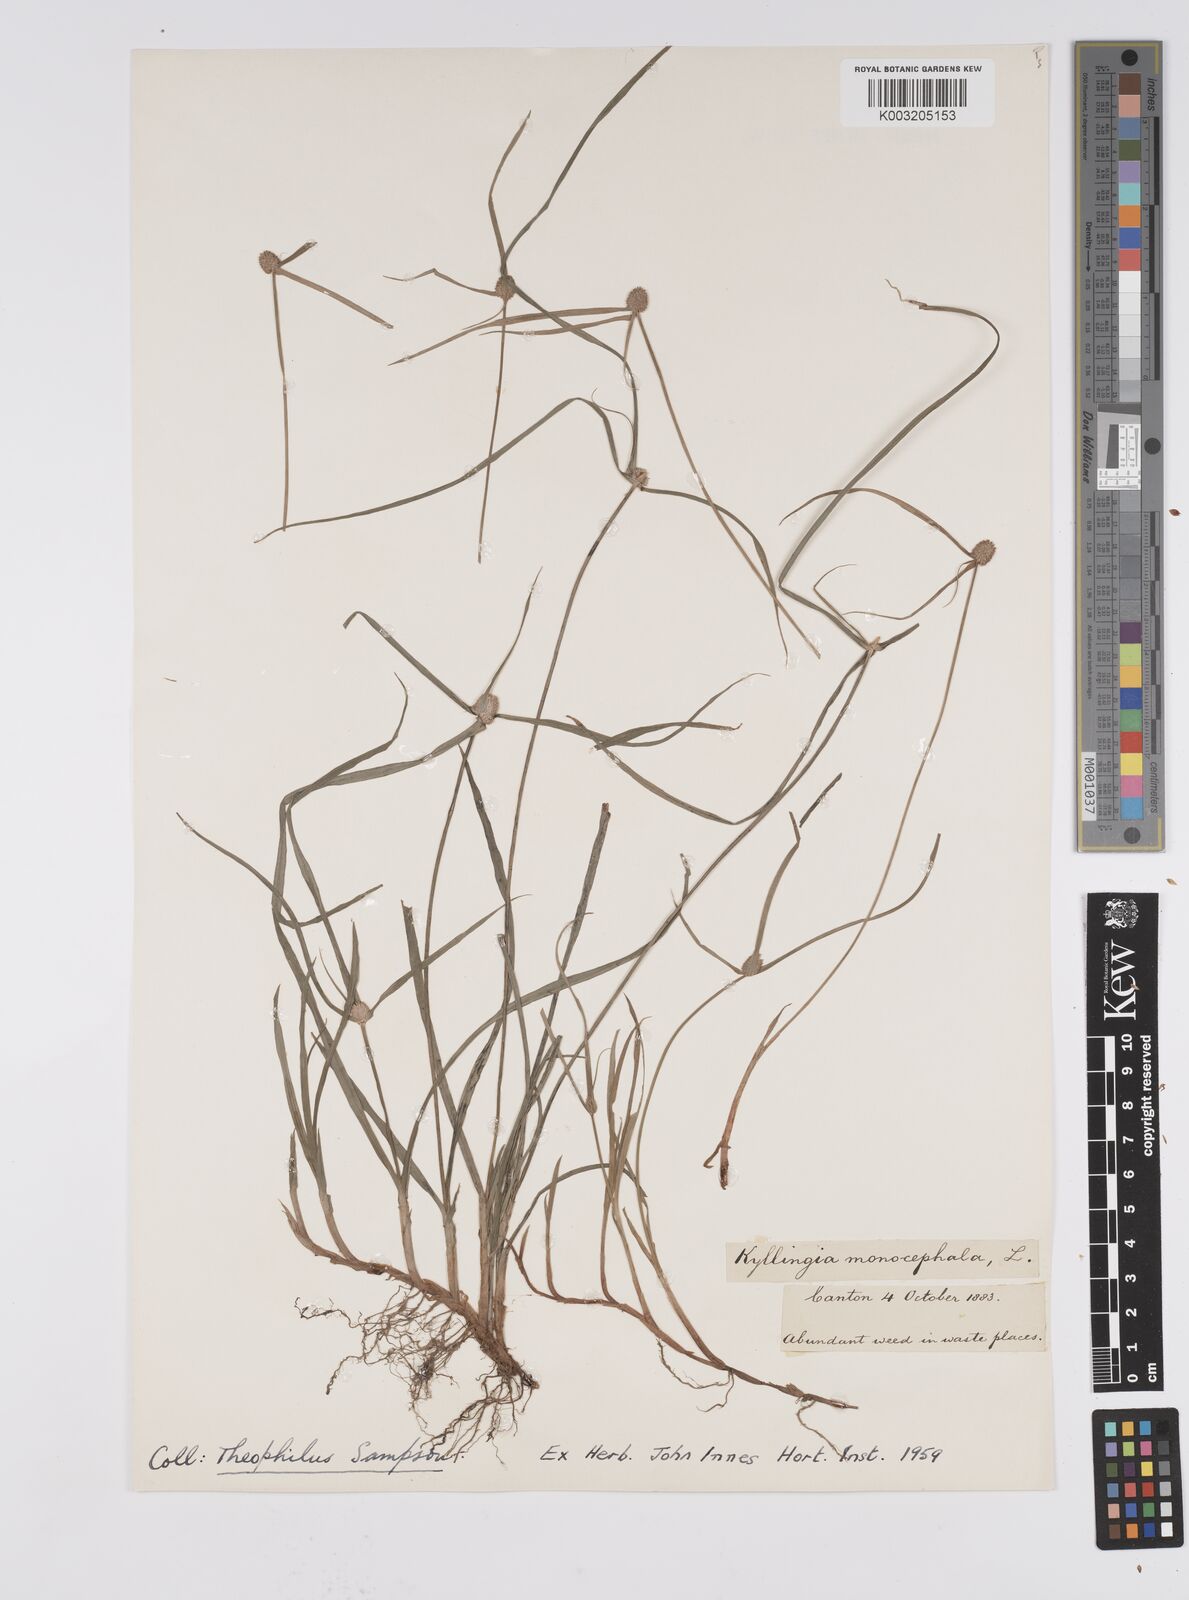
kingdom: Plantae
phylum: Tracheophyta
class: Liliopsida
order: Poales
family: Cyperaceae
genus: Cyperus
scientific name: Cyperus nemoralis
